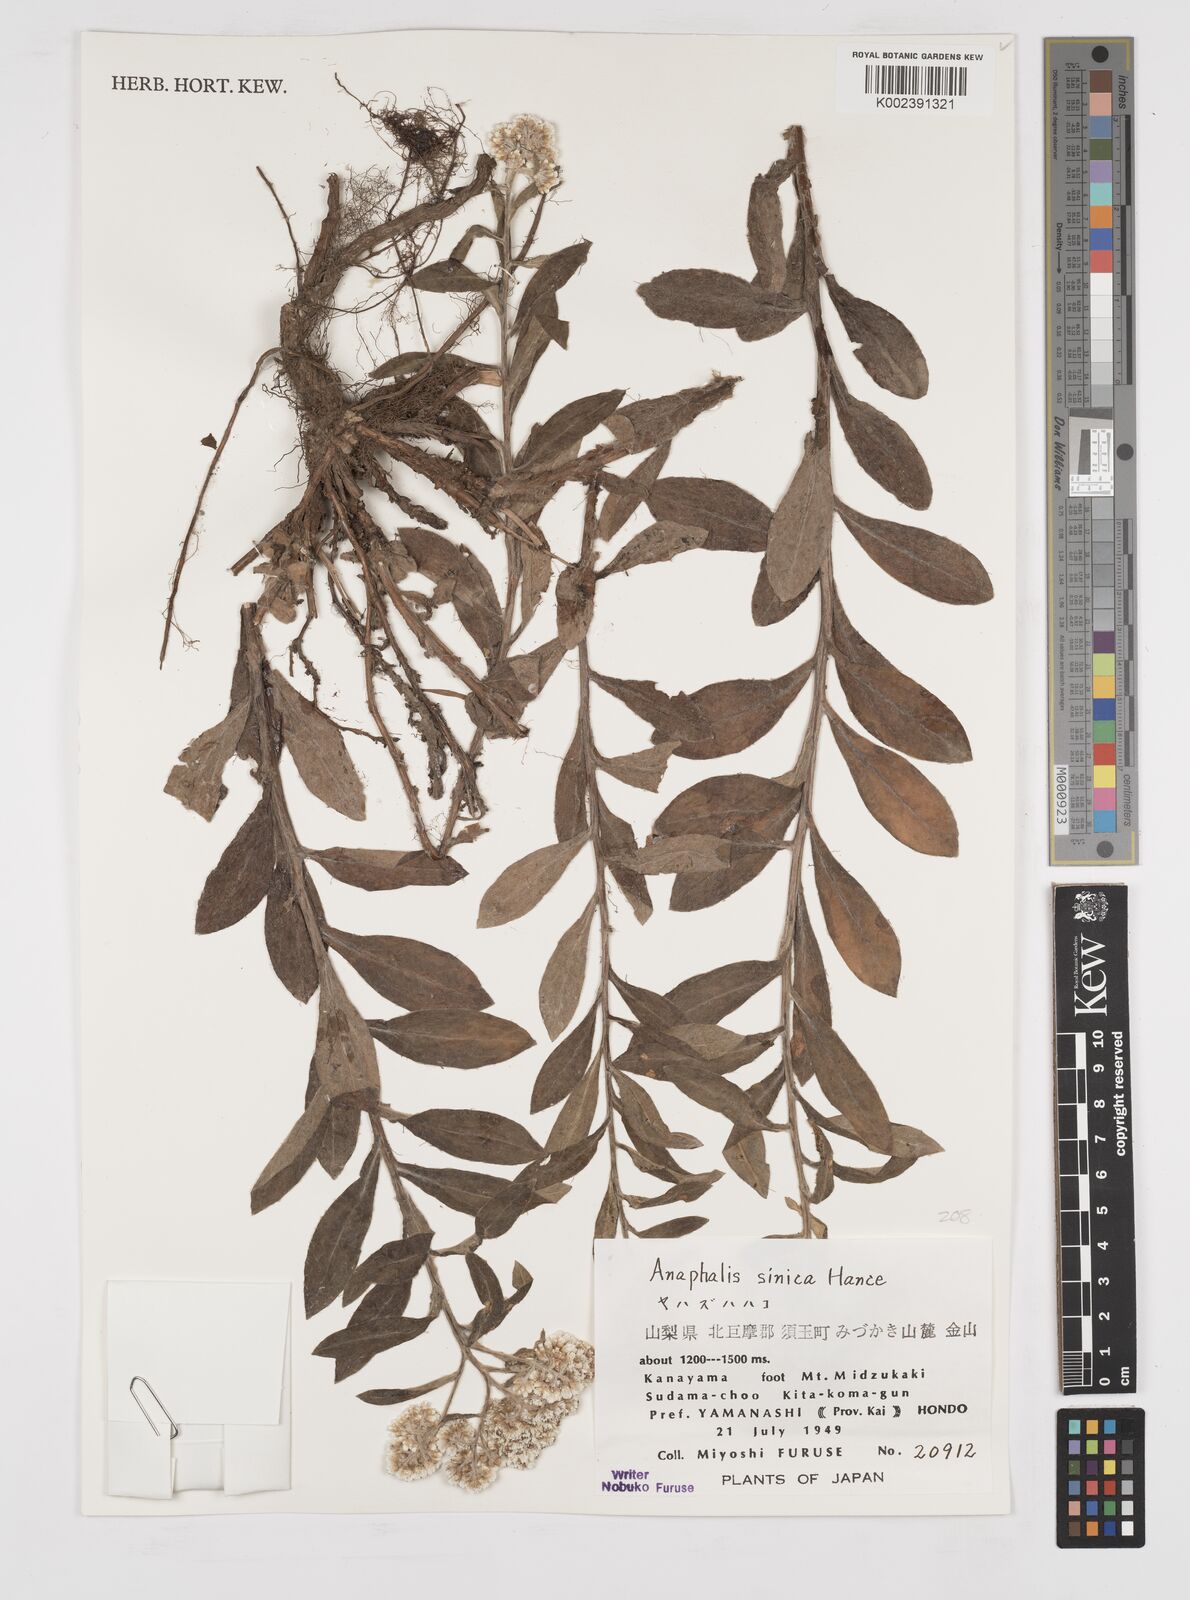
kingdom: Plantae
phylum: Tracheophyta
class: Magnoliopsida
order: Asterales
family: Asteraceae
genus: Anaphalis
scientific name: Anaphalis sinica
